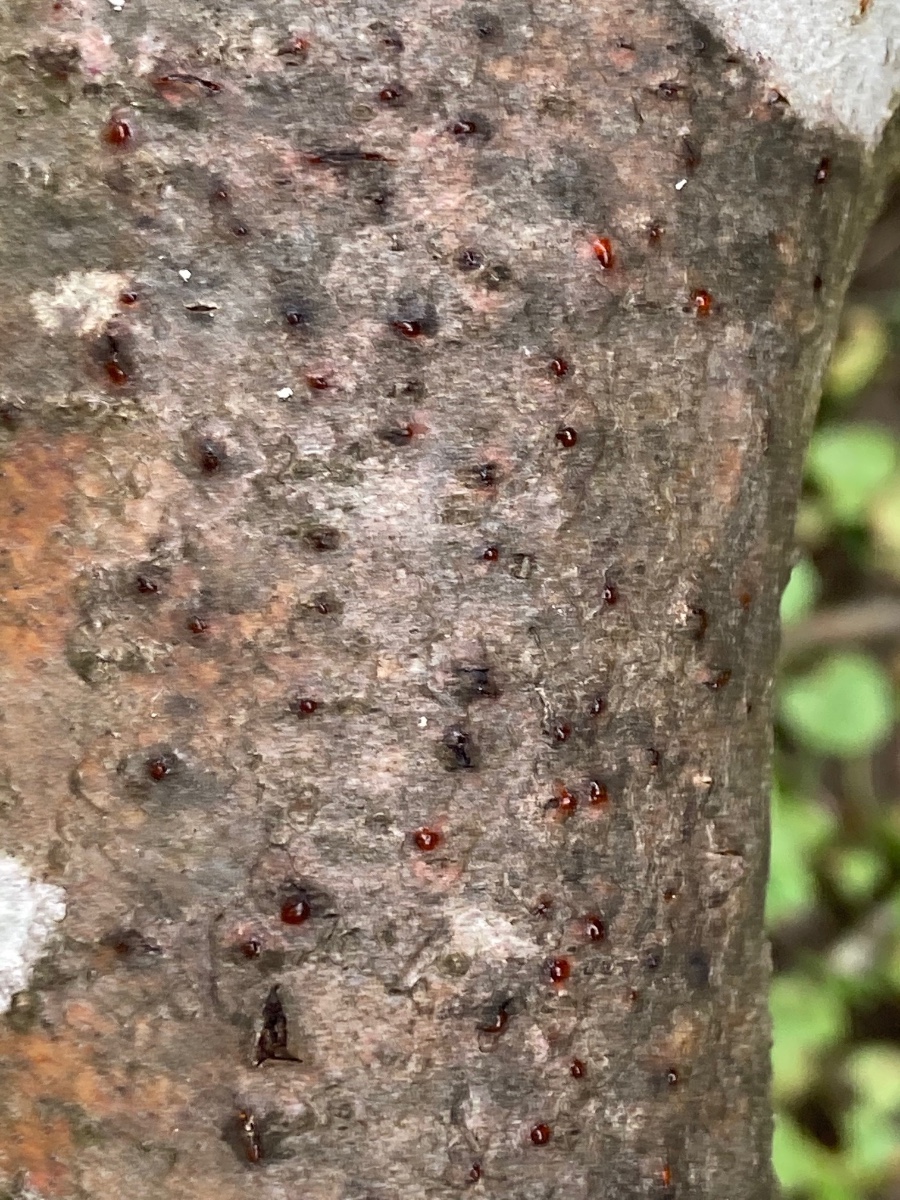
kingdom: Fungi
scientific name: Fungi
